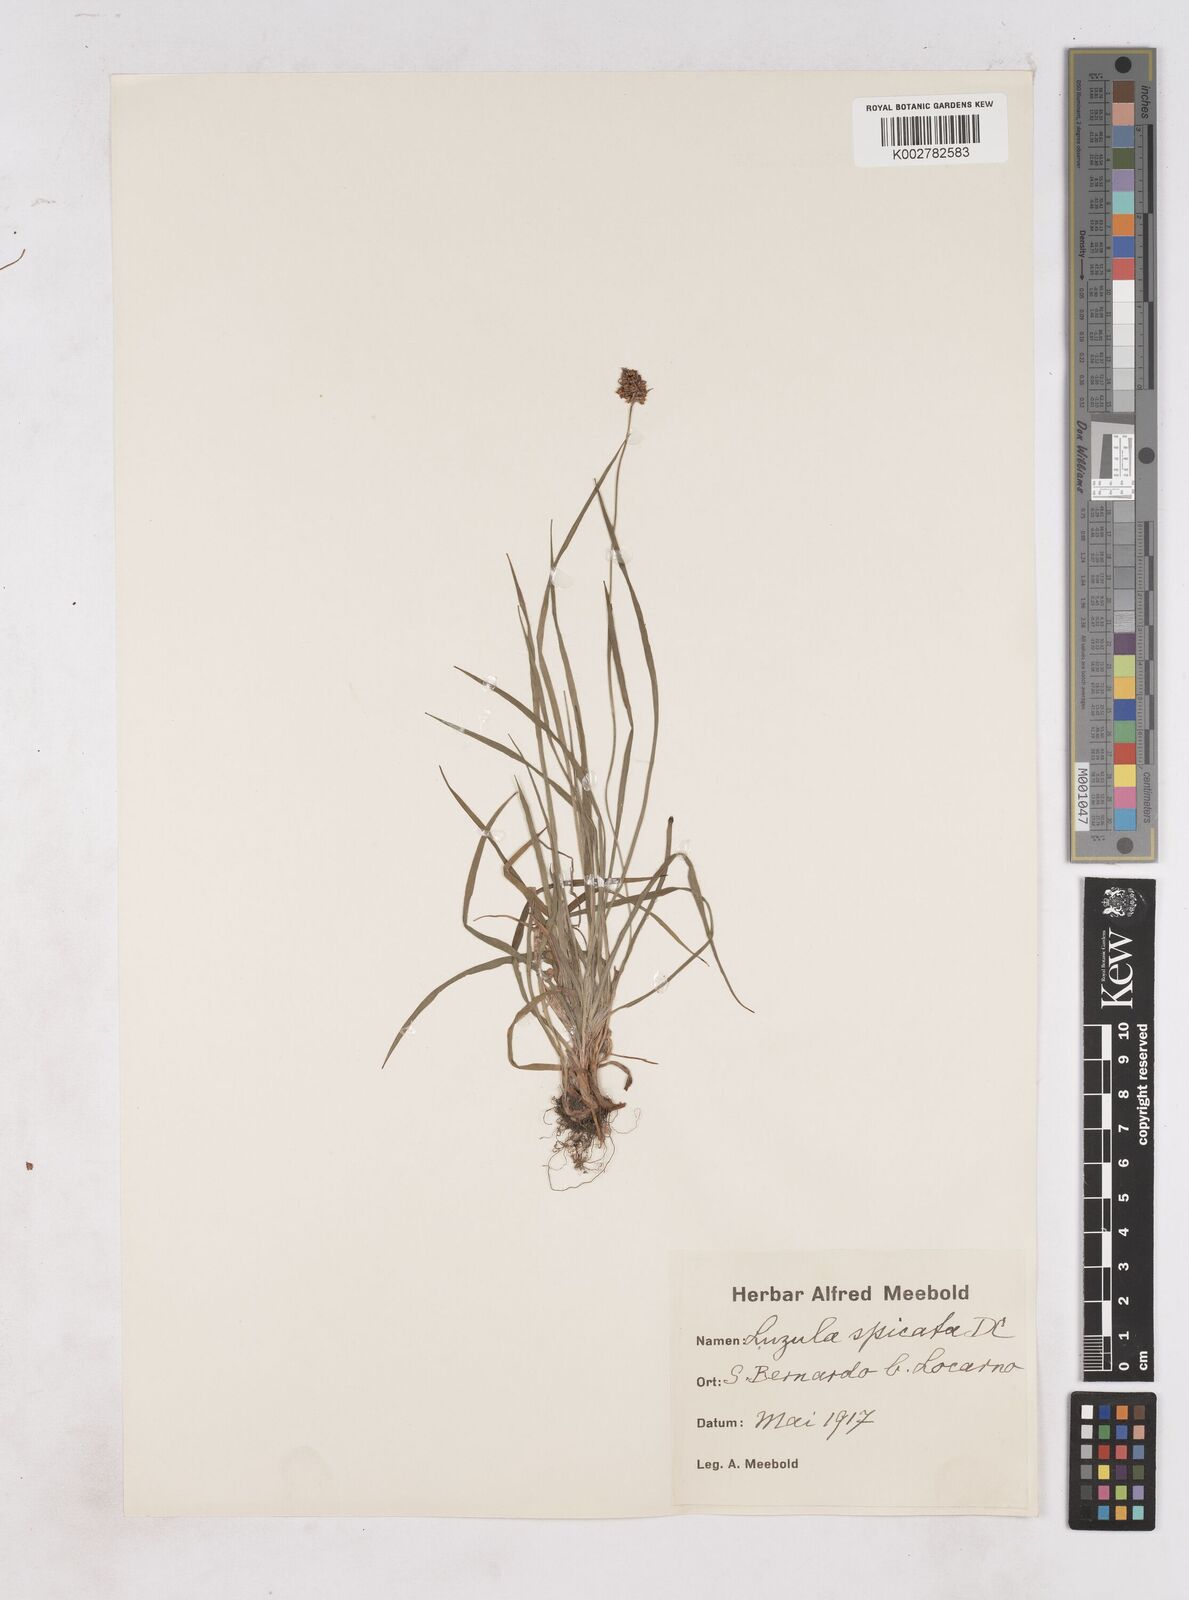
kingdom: Plantae
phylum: Tracheophyta
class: Liliopsida
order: Poales
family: Juncaceae
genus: Luzula
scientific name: Luzula spicata
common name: Spiked wood-rush
